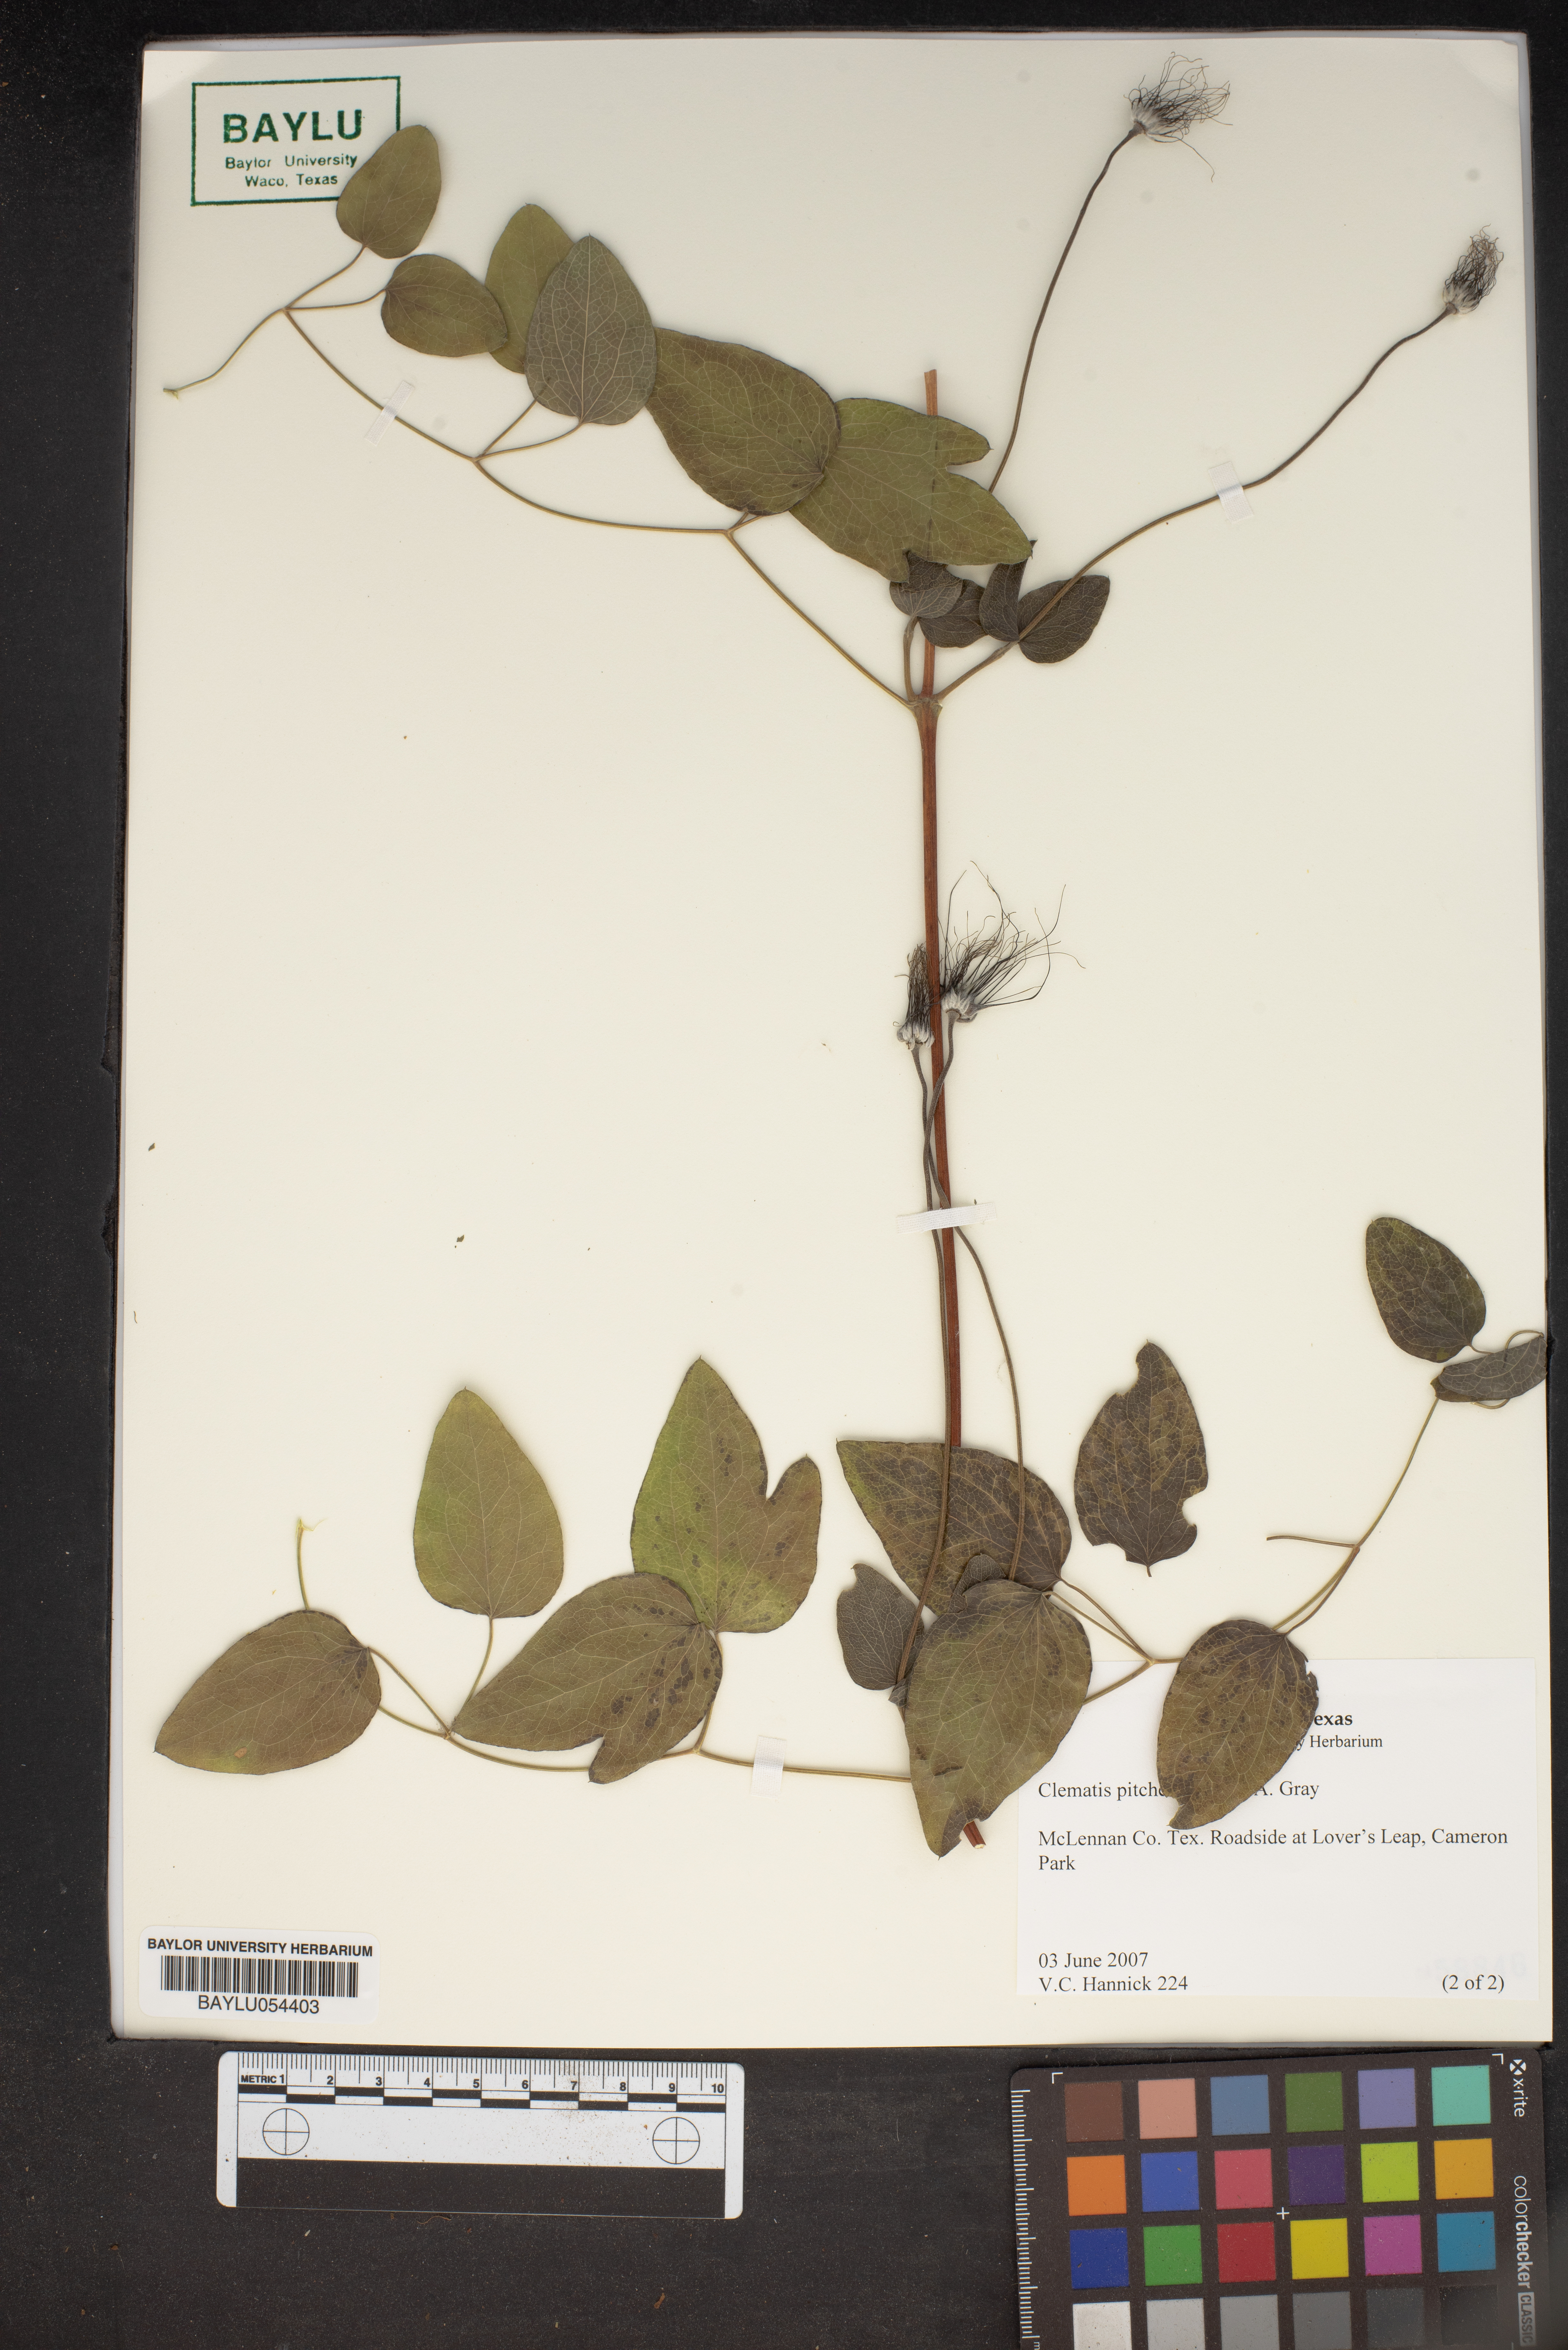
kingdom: Plantae
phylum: Tracheophyta
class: Magnoliopsida
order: Ranunculales
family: Ranunculaceae
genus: Clematis
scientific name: Clematis pitcheri
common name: Bellflower clematis
